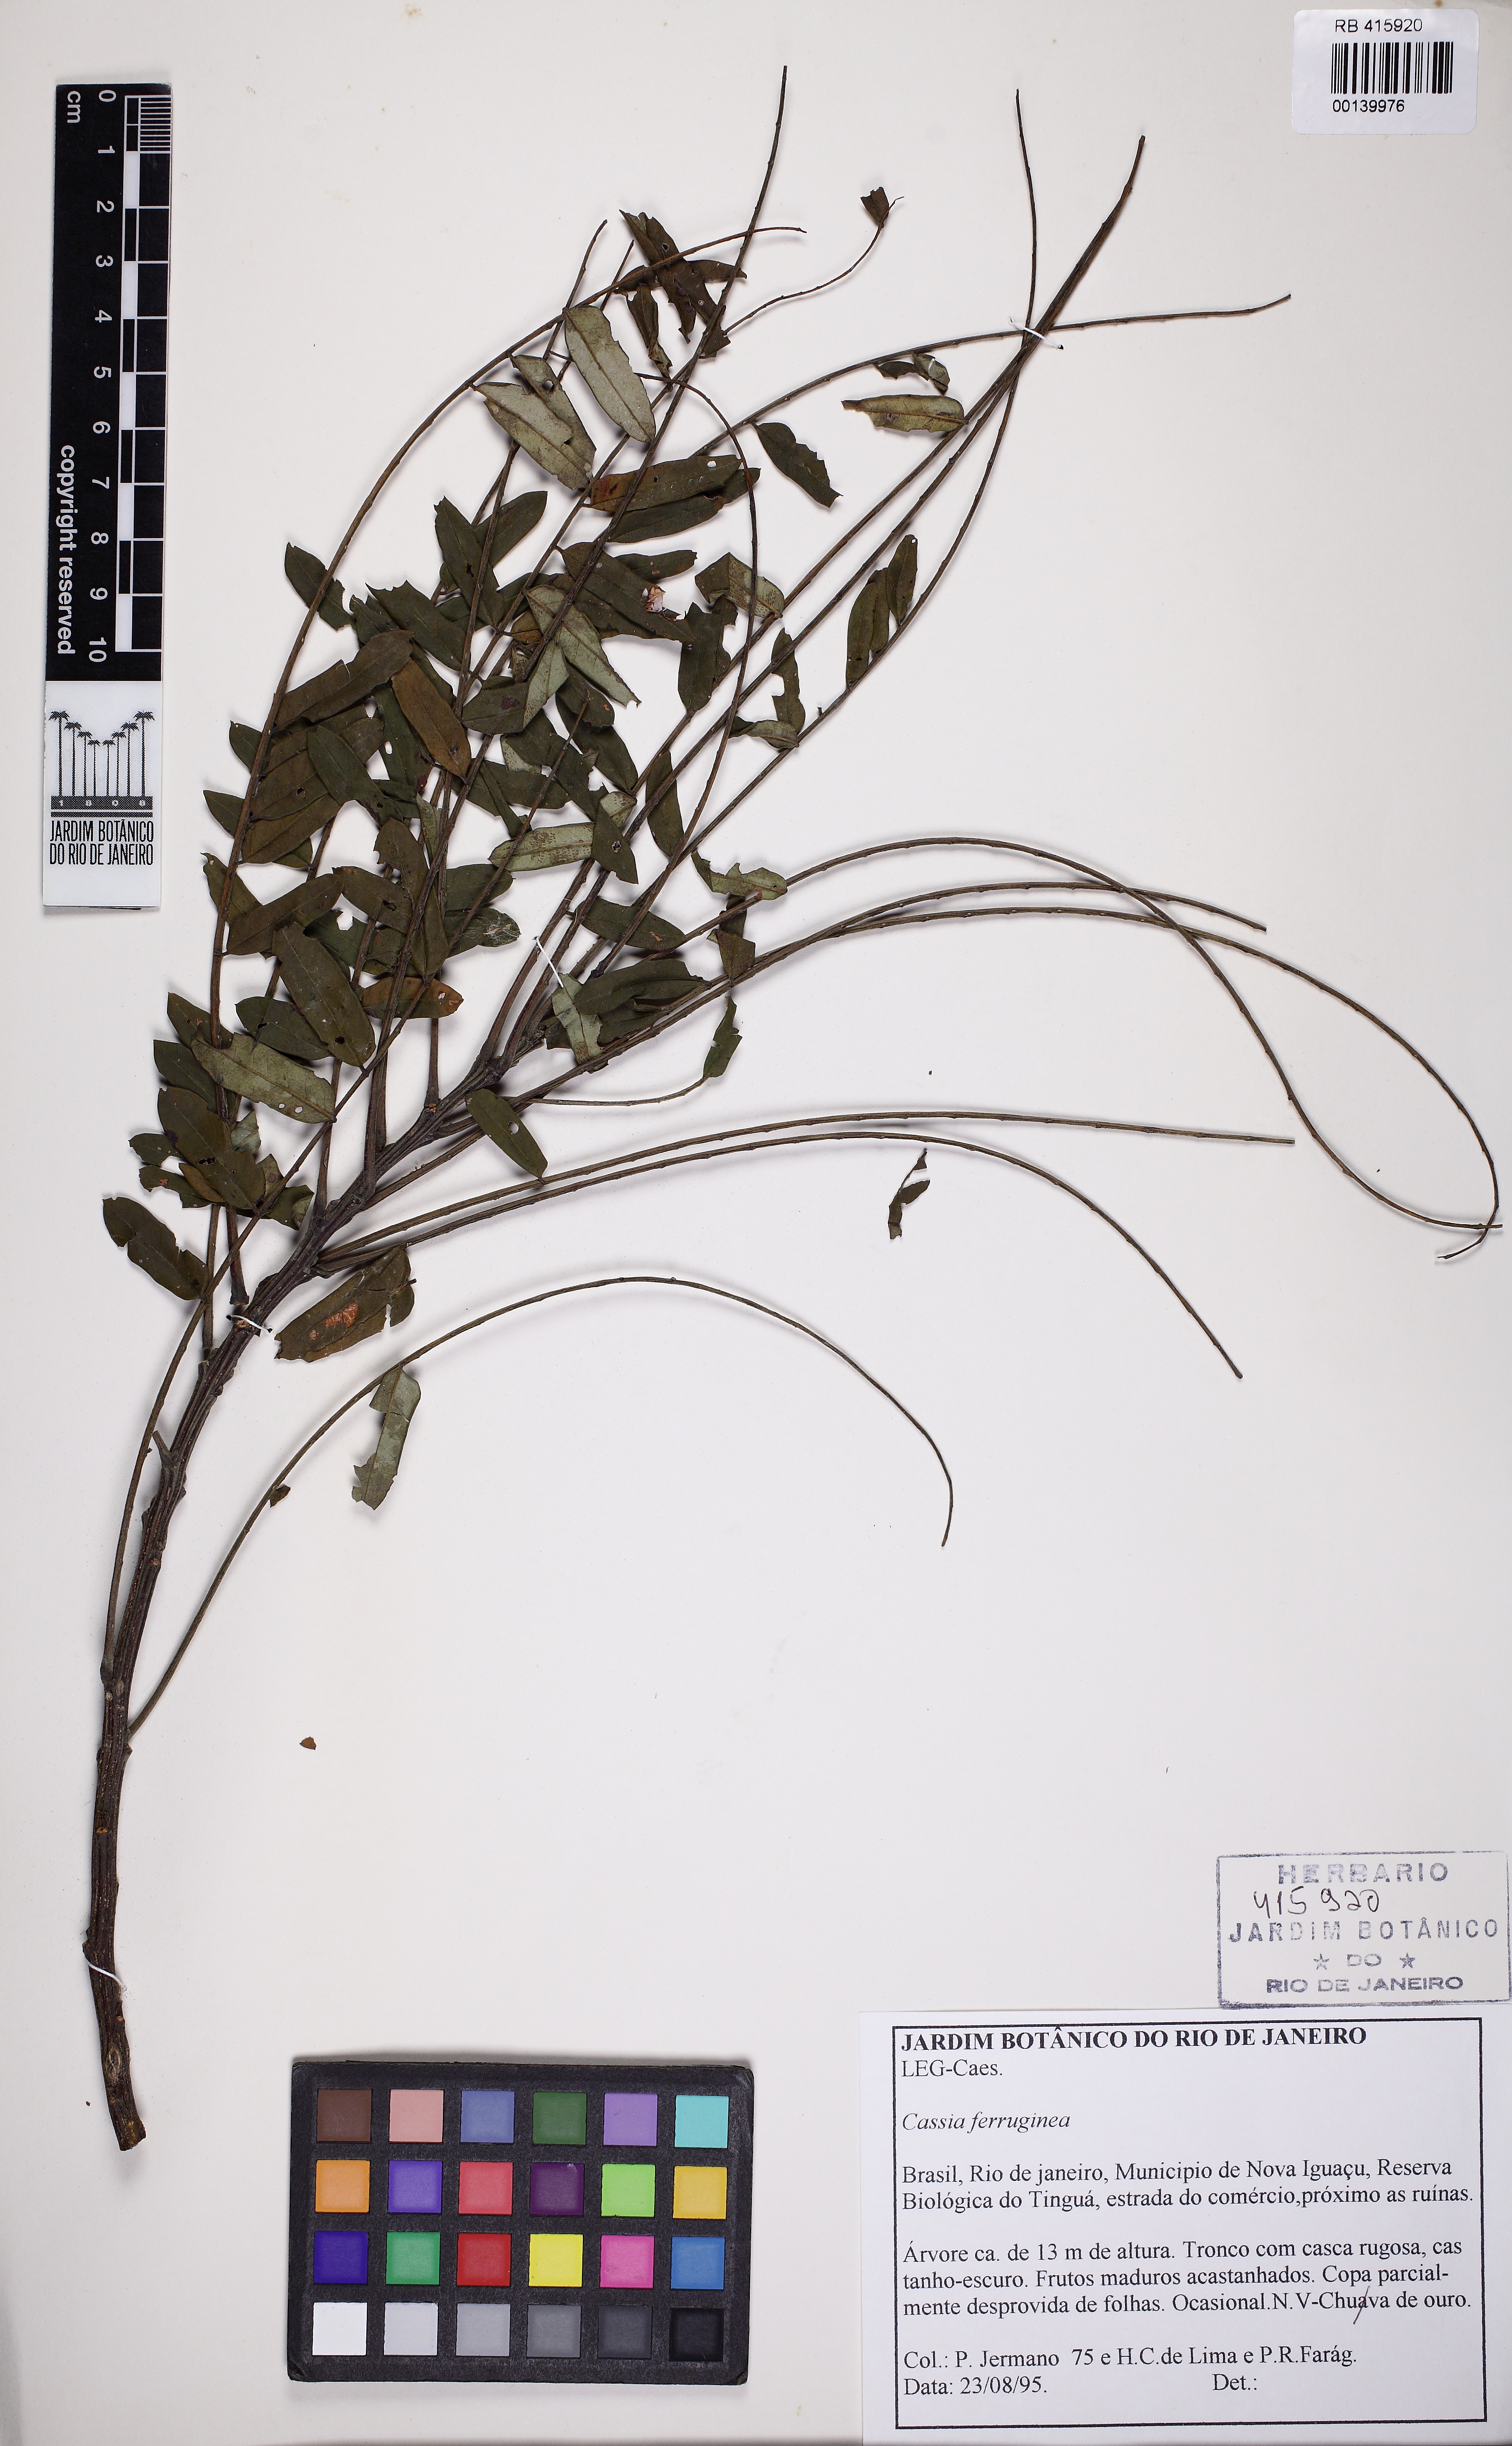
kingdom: Plantae
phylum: Tracheophyta
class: Magnoliopsida
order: Fabales
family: Fabaceae
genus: Cassia
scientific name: Cassia ferruginea
